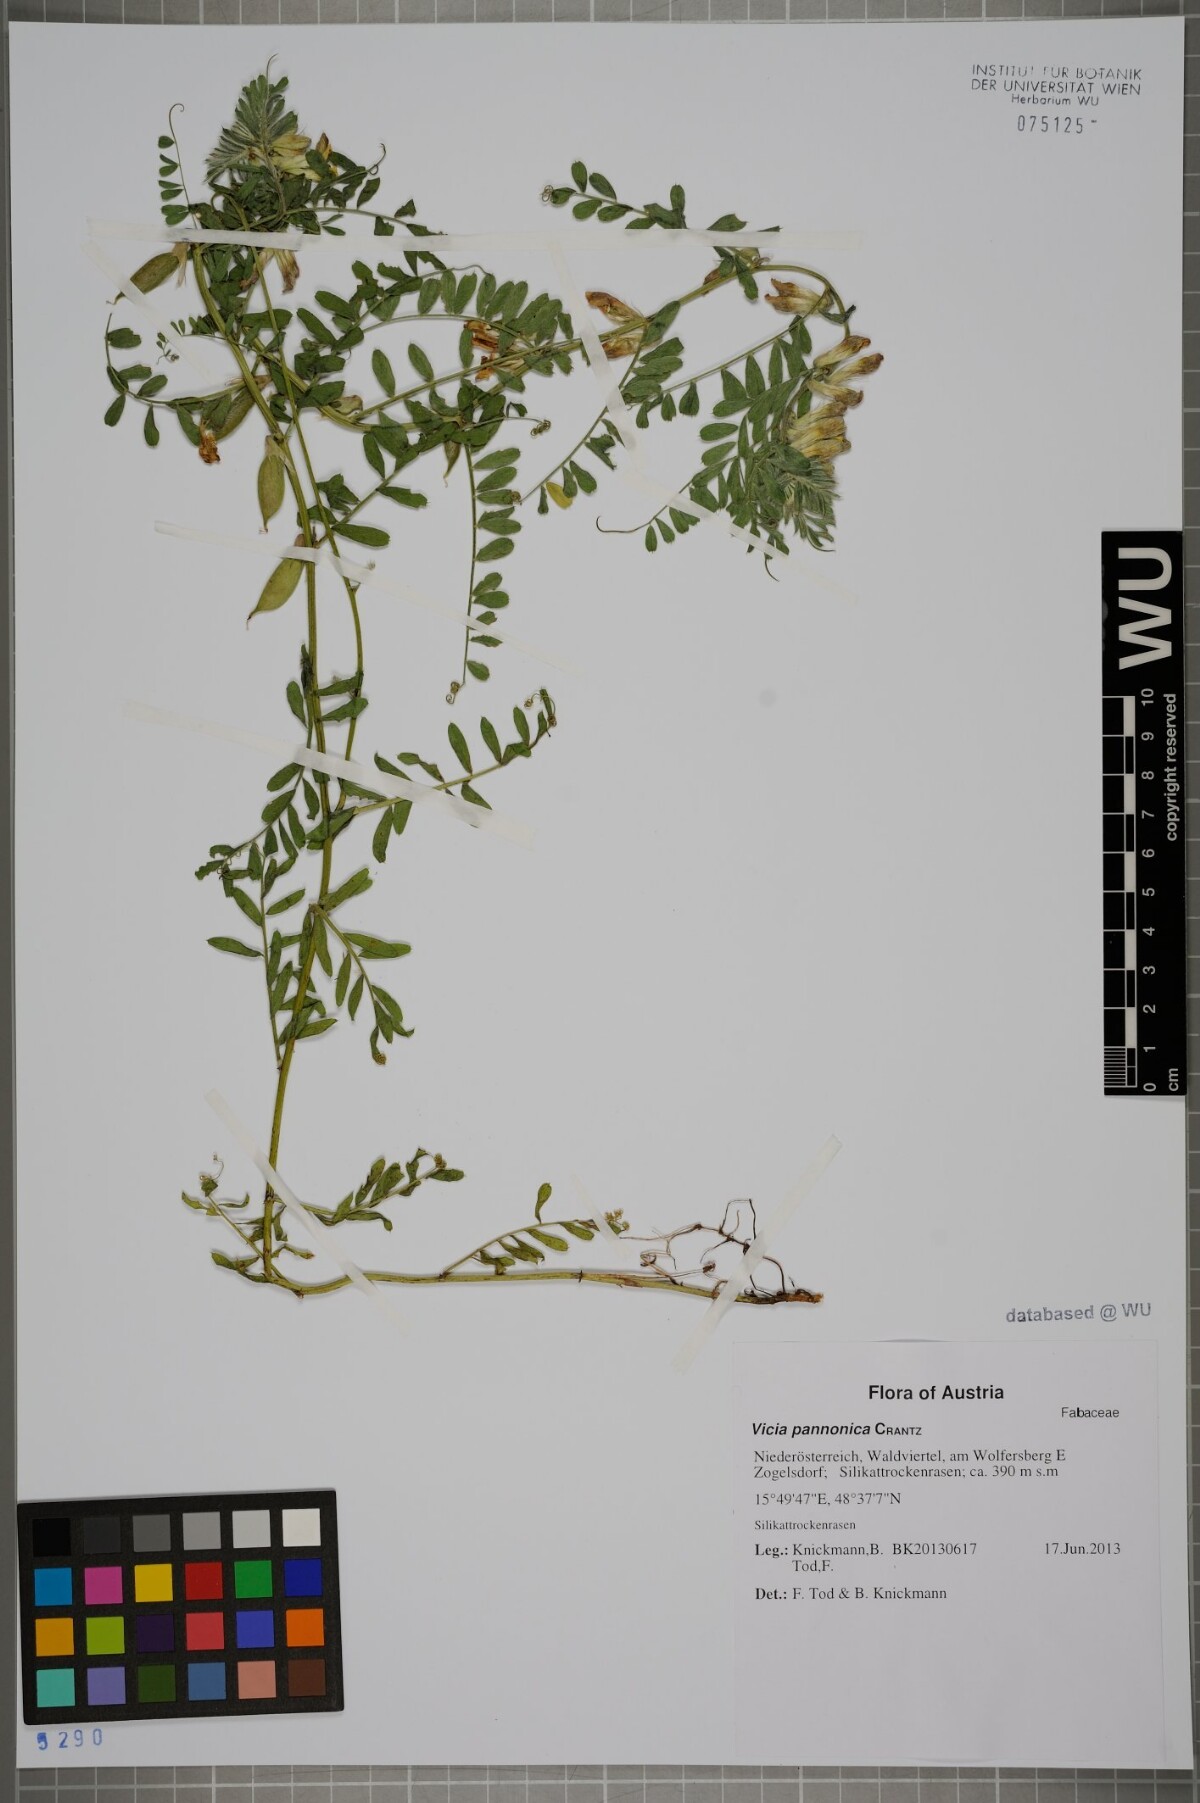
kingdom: Plantae
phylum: Tracheophyta
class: Magnoliopsida
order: Fabales
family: Fabaceae
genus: Vicia
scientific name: Vicia pannonica
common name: Hungarian vetch
